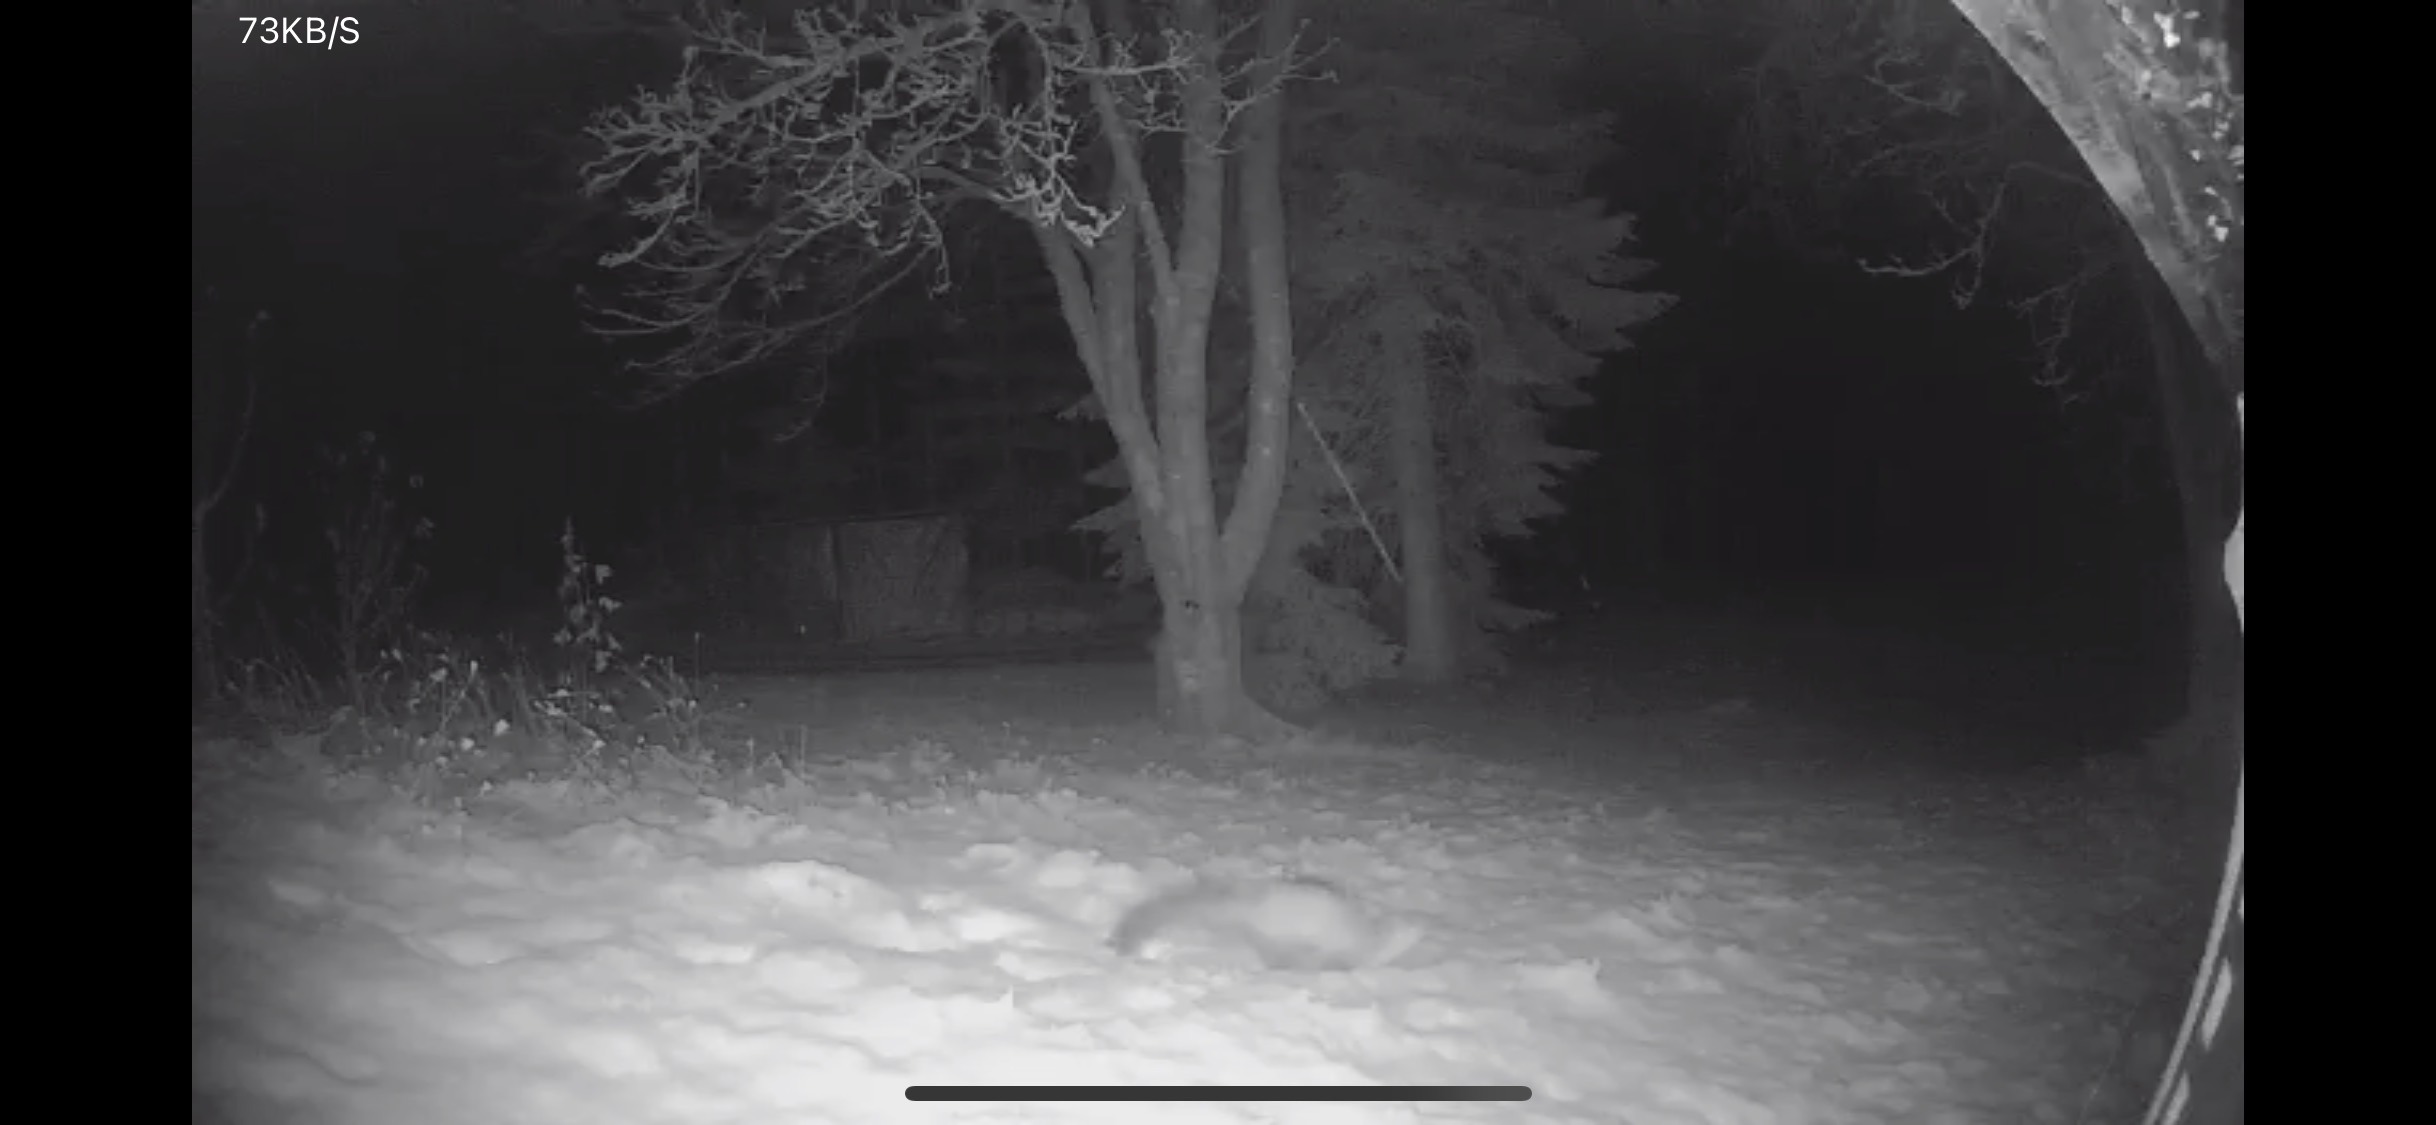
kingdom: Animalia
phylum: Chordata
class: Mammalia
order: Carnivora
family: Canidae
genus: Vulpes
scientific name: Vulpes vulpes
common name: Ræv
